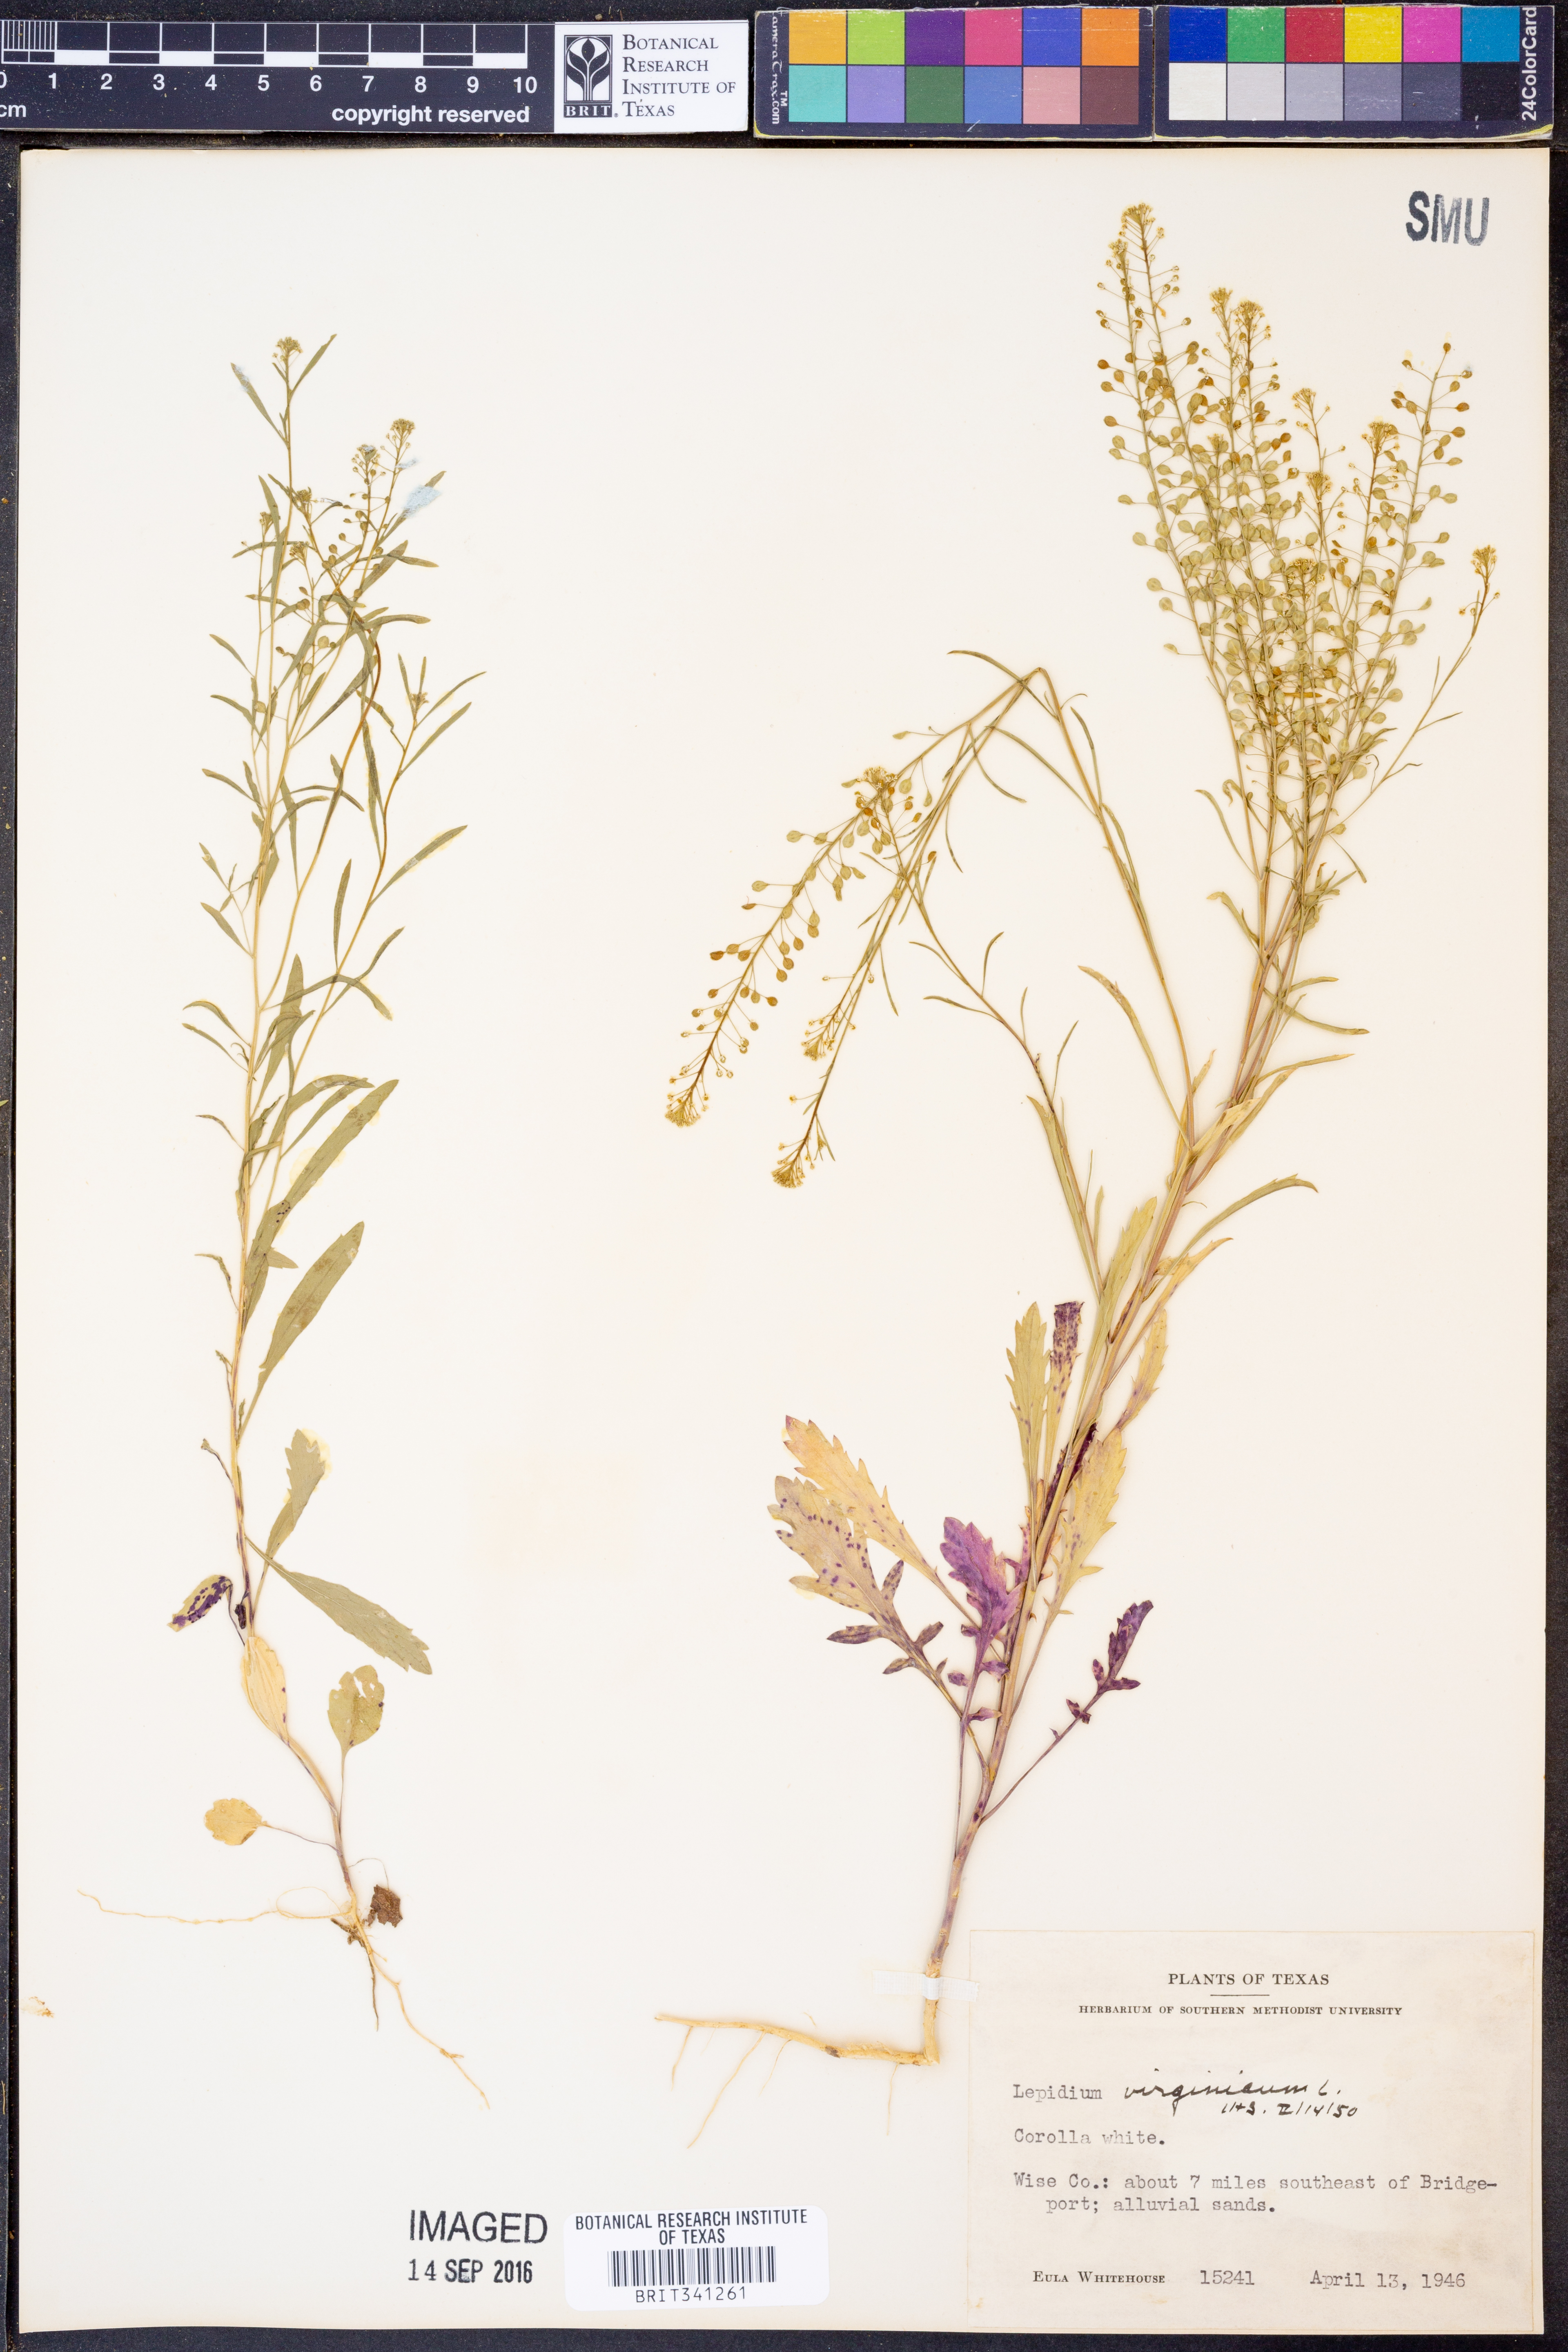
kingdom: Plantae
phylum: Tracheophyta
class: Magnoliopsida
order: Brassicales
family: Brassicaceae
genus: Lepidium
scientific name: Lepidium virginicum
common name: Least pepperwort
